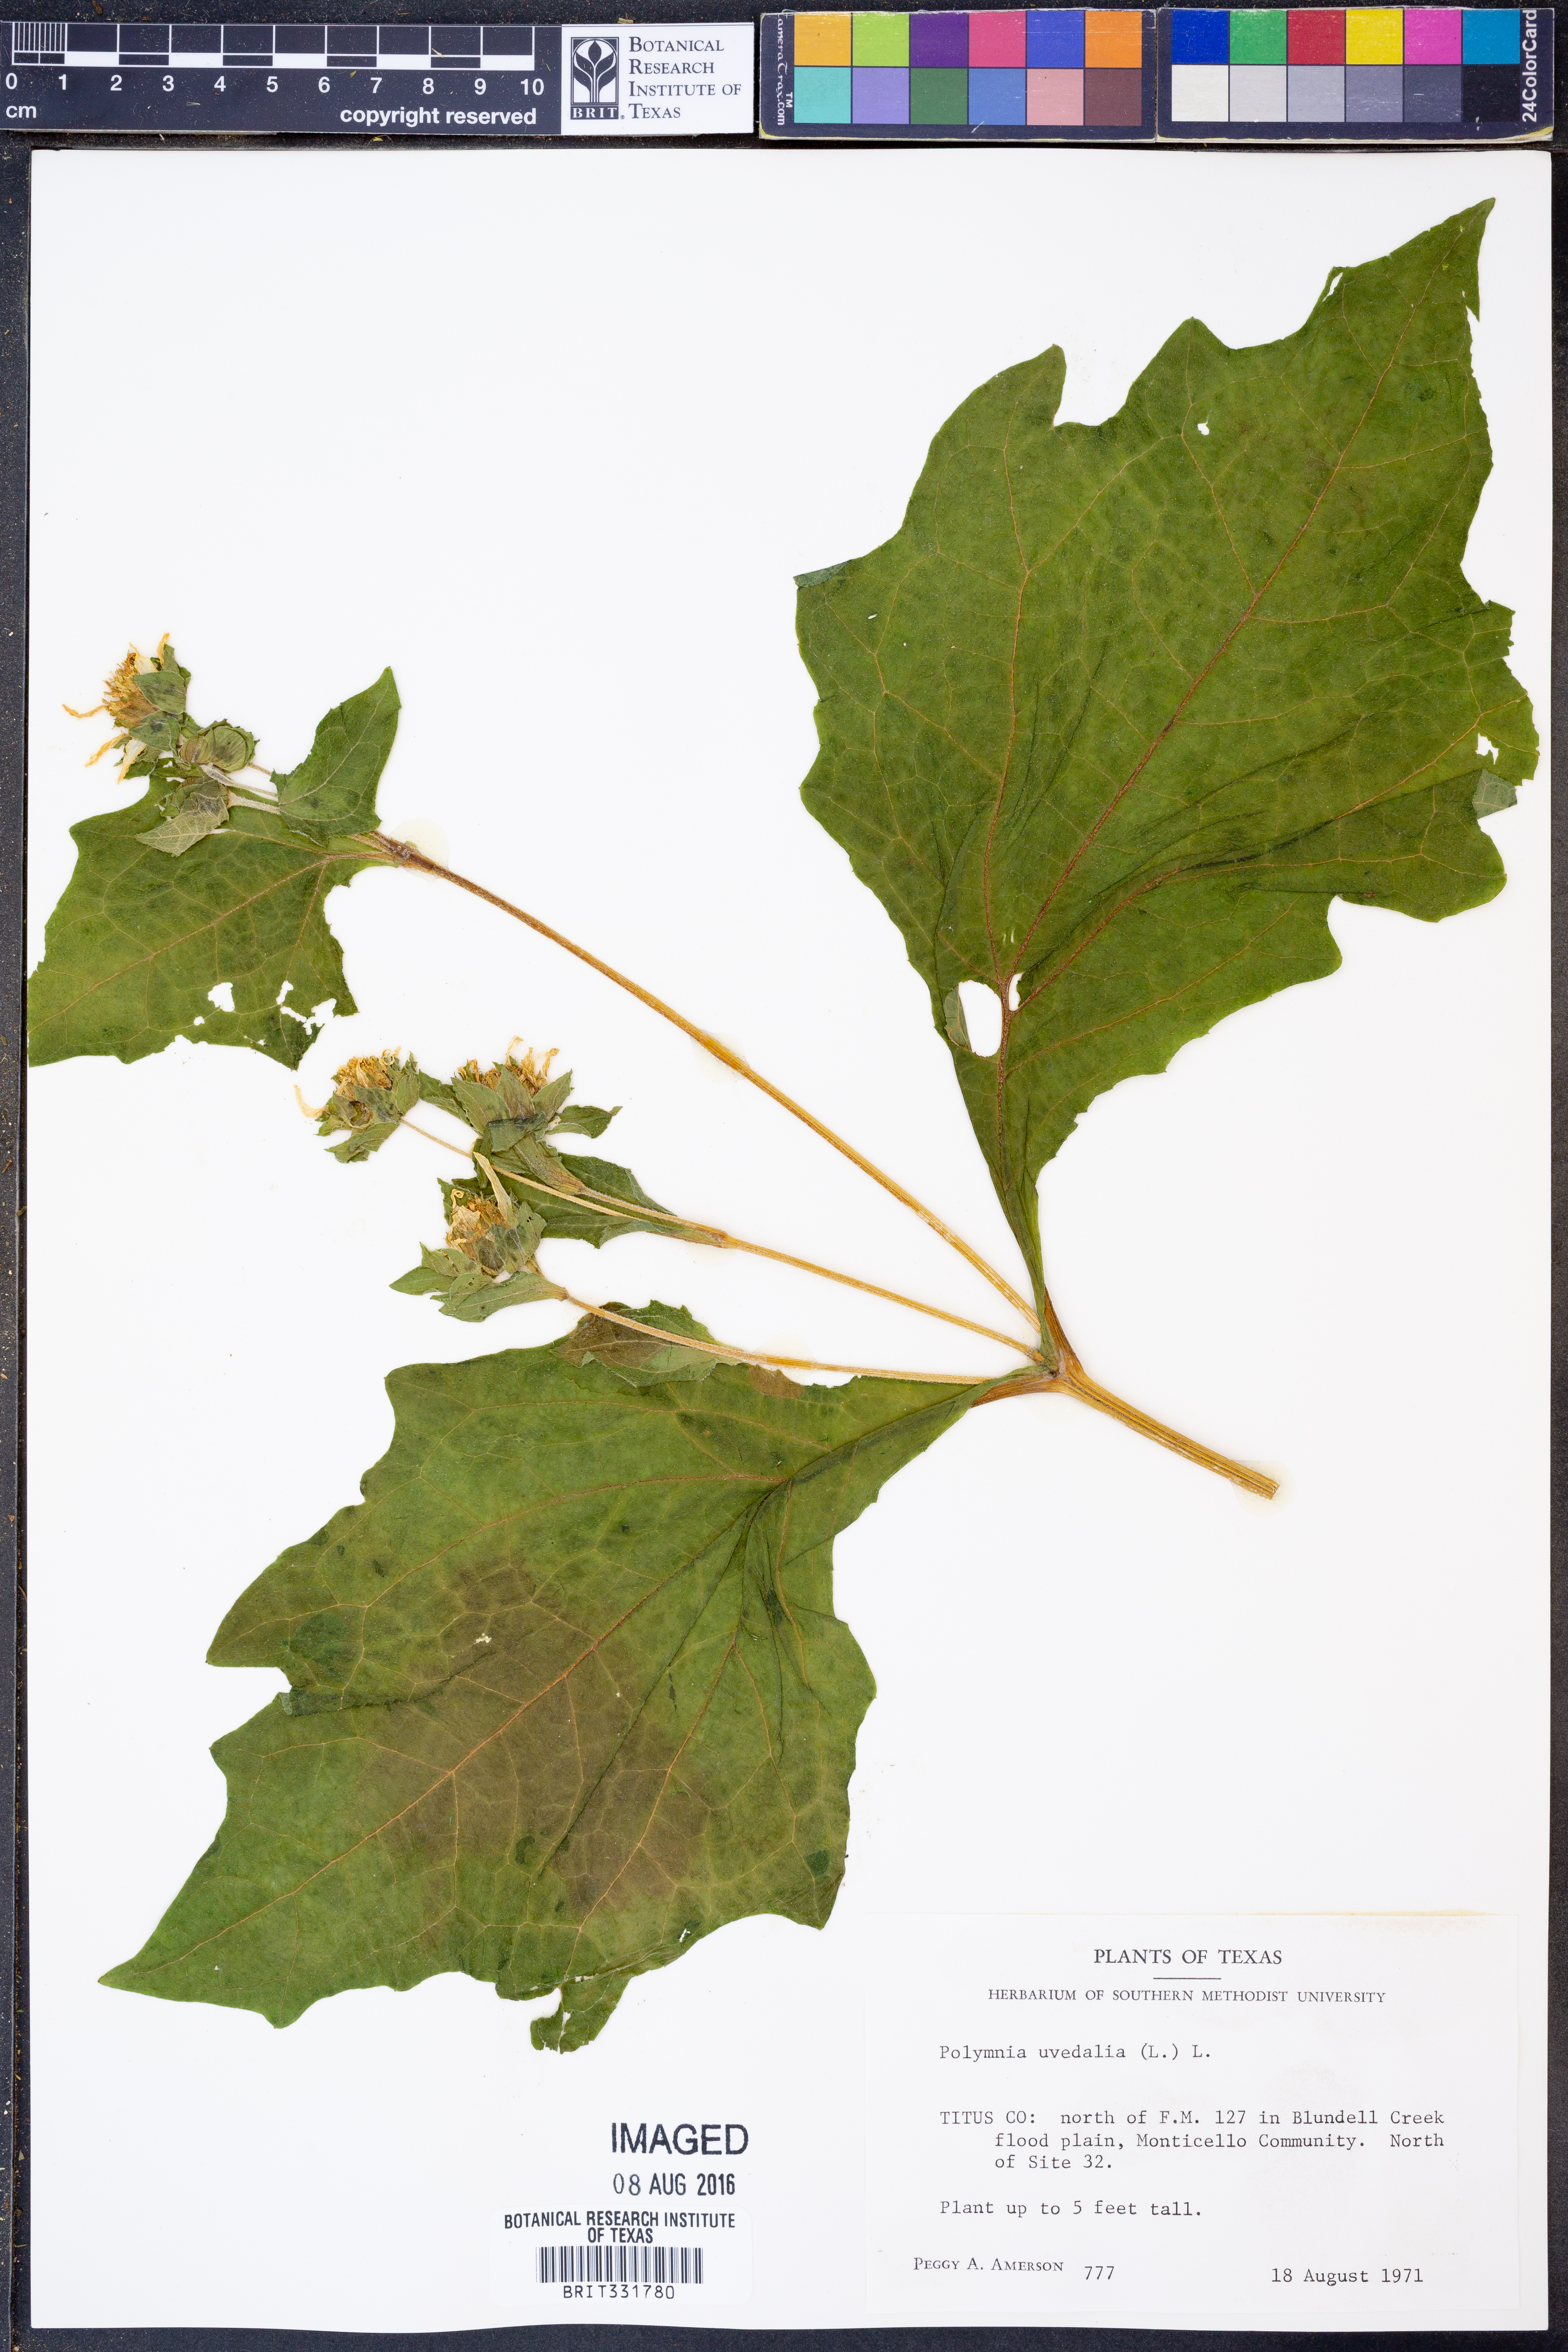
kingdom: Plantae
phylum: Tracheophyta
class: Magnoliopsida
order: Asterales
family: Asteraceae
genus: Smallanthus
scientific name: Smallanthus uvedalia
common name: Bear's-foot
